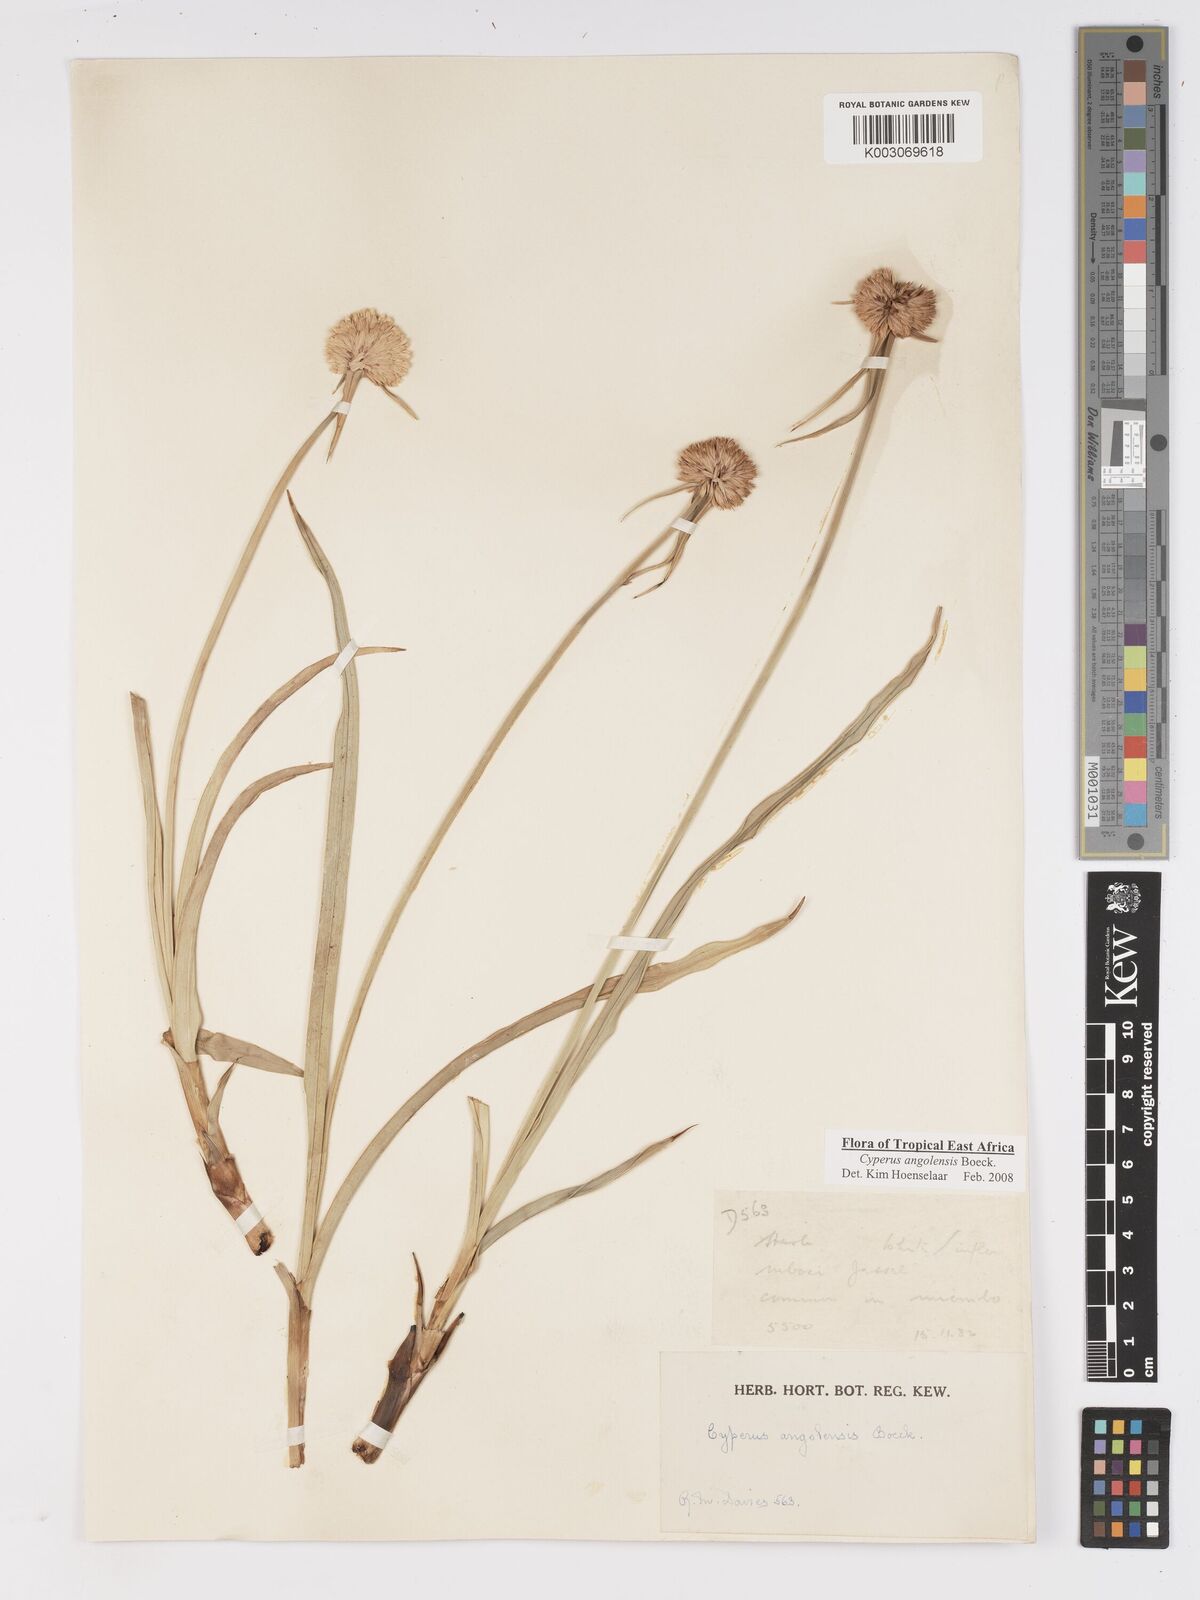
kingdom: Plantae
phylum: Tracheophyta
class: Liliopsida
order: Poales
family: Cyperaceae
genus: Cyperus
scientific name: Cyperus angolensis
